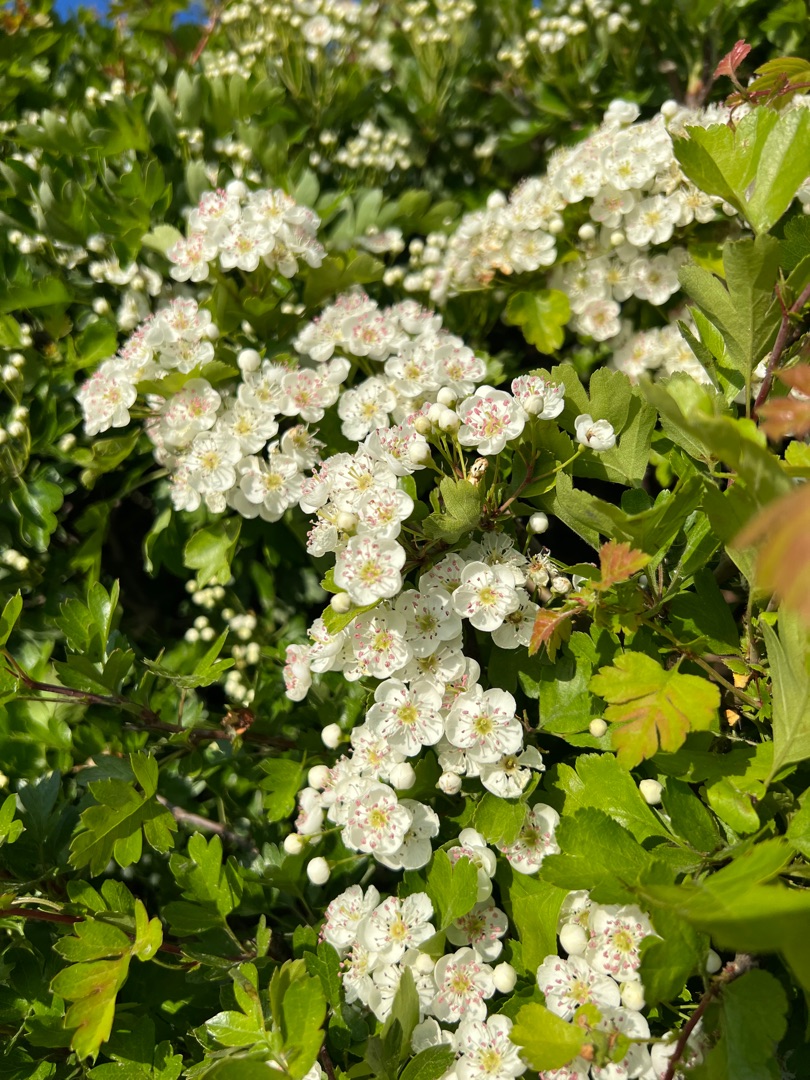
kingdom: Plantae
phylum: Tracheophyta
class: Magnoliopsida
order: Rosales
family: Rosaceae
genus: Crataegus
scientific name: Crataegus monogyna
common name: Engriflet hvidtjørn
